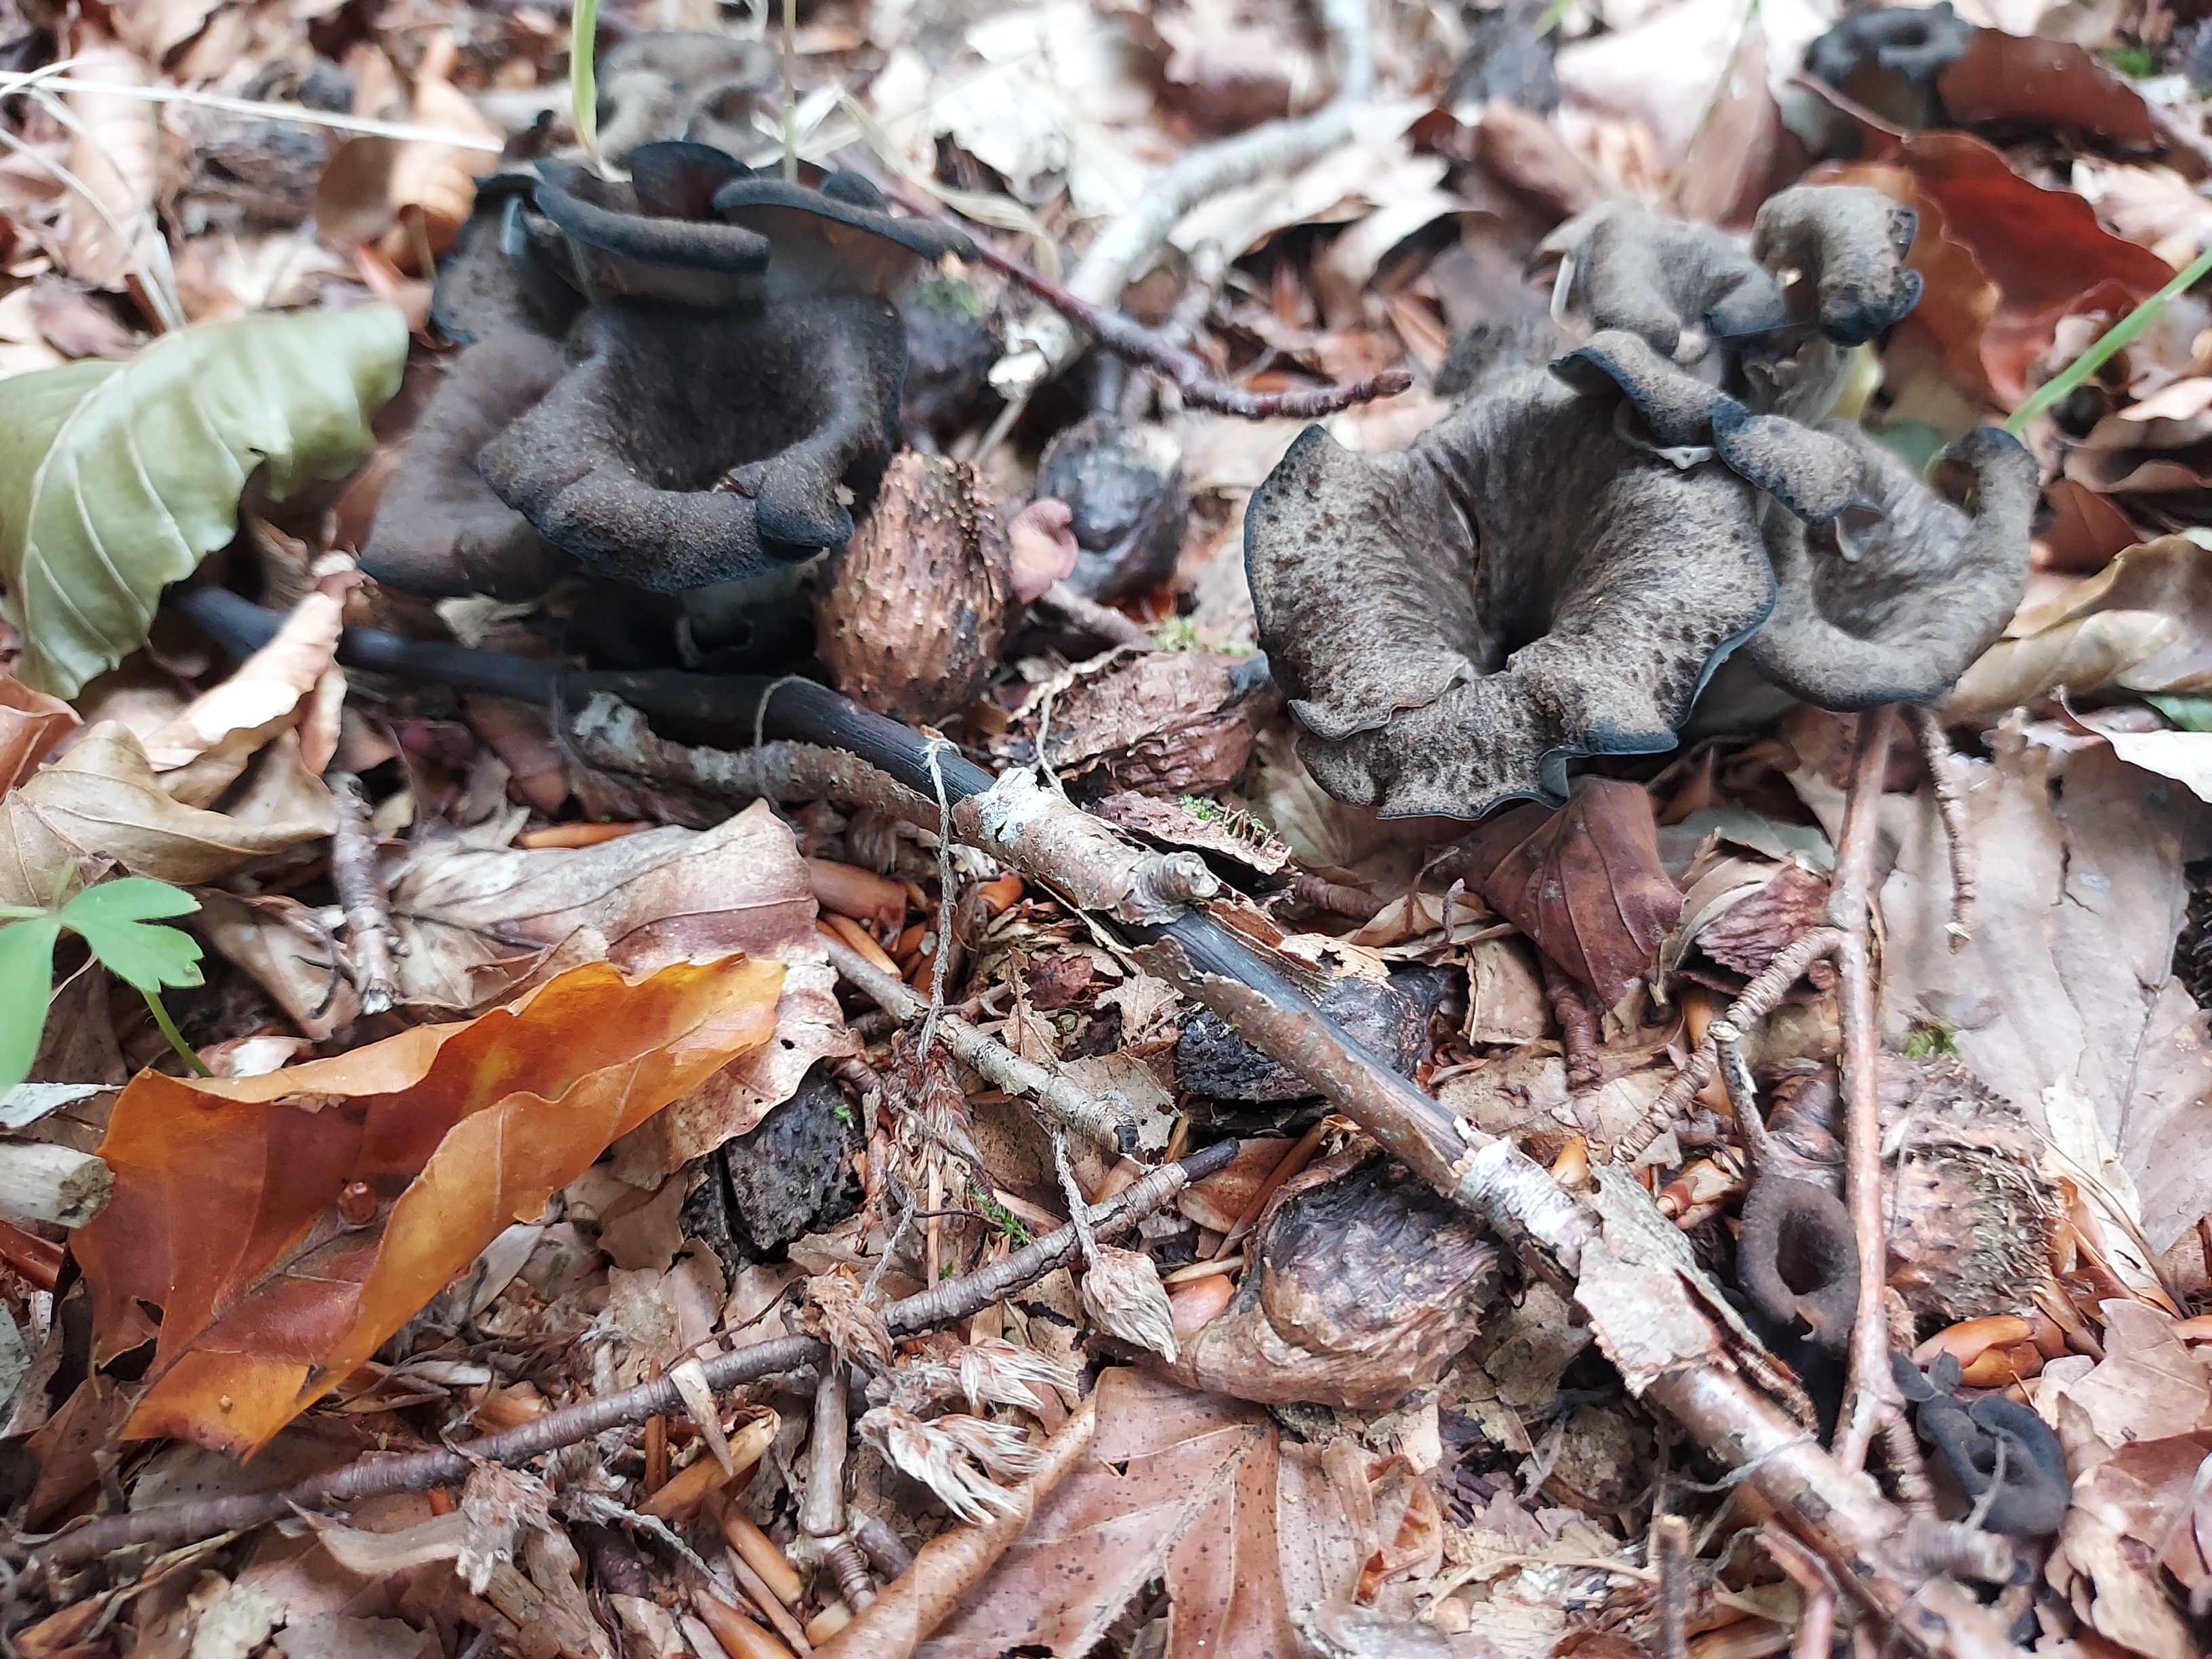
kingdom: Fungi
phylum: Basidiomycota
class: Agaricomycetes
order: Cantharellales
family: Hydnaceae
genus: Craterellus
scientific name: Craterellus cornucopioides
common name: trompetsvamp
